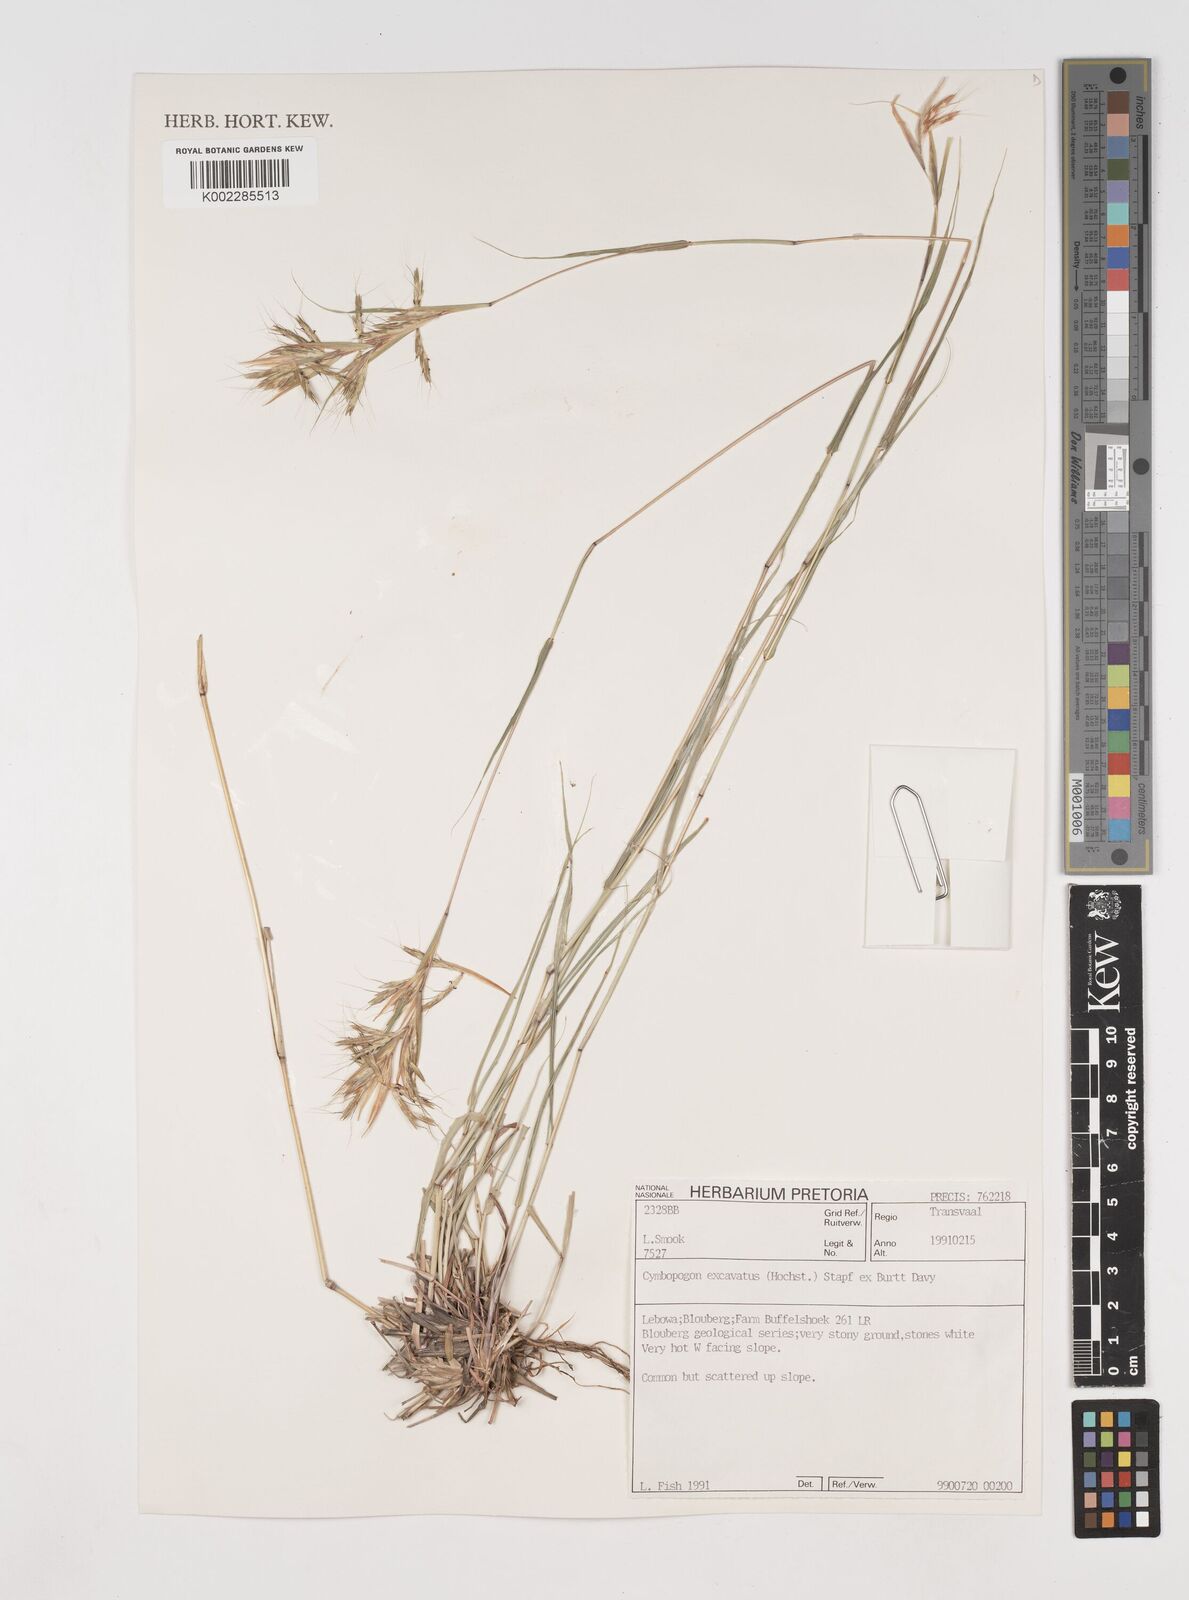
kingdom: Plantae
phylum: Tracheophyta
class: Liliopsida
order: Poales
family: Poaceae
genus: Cymbopogon
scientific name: Cymbopogon caesius
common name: Kachi grass
